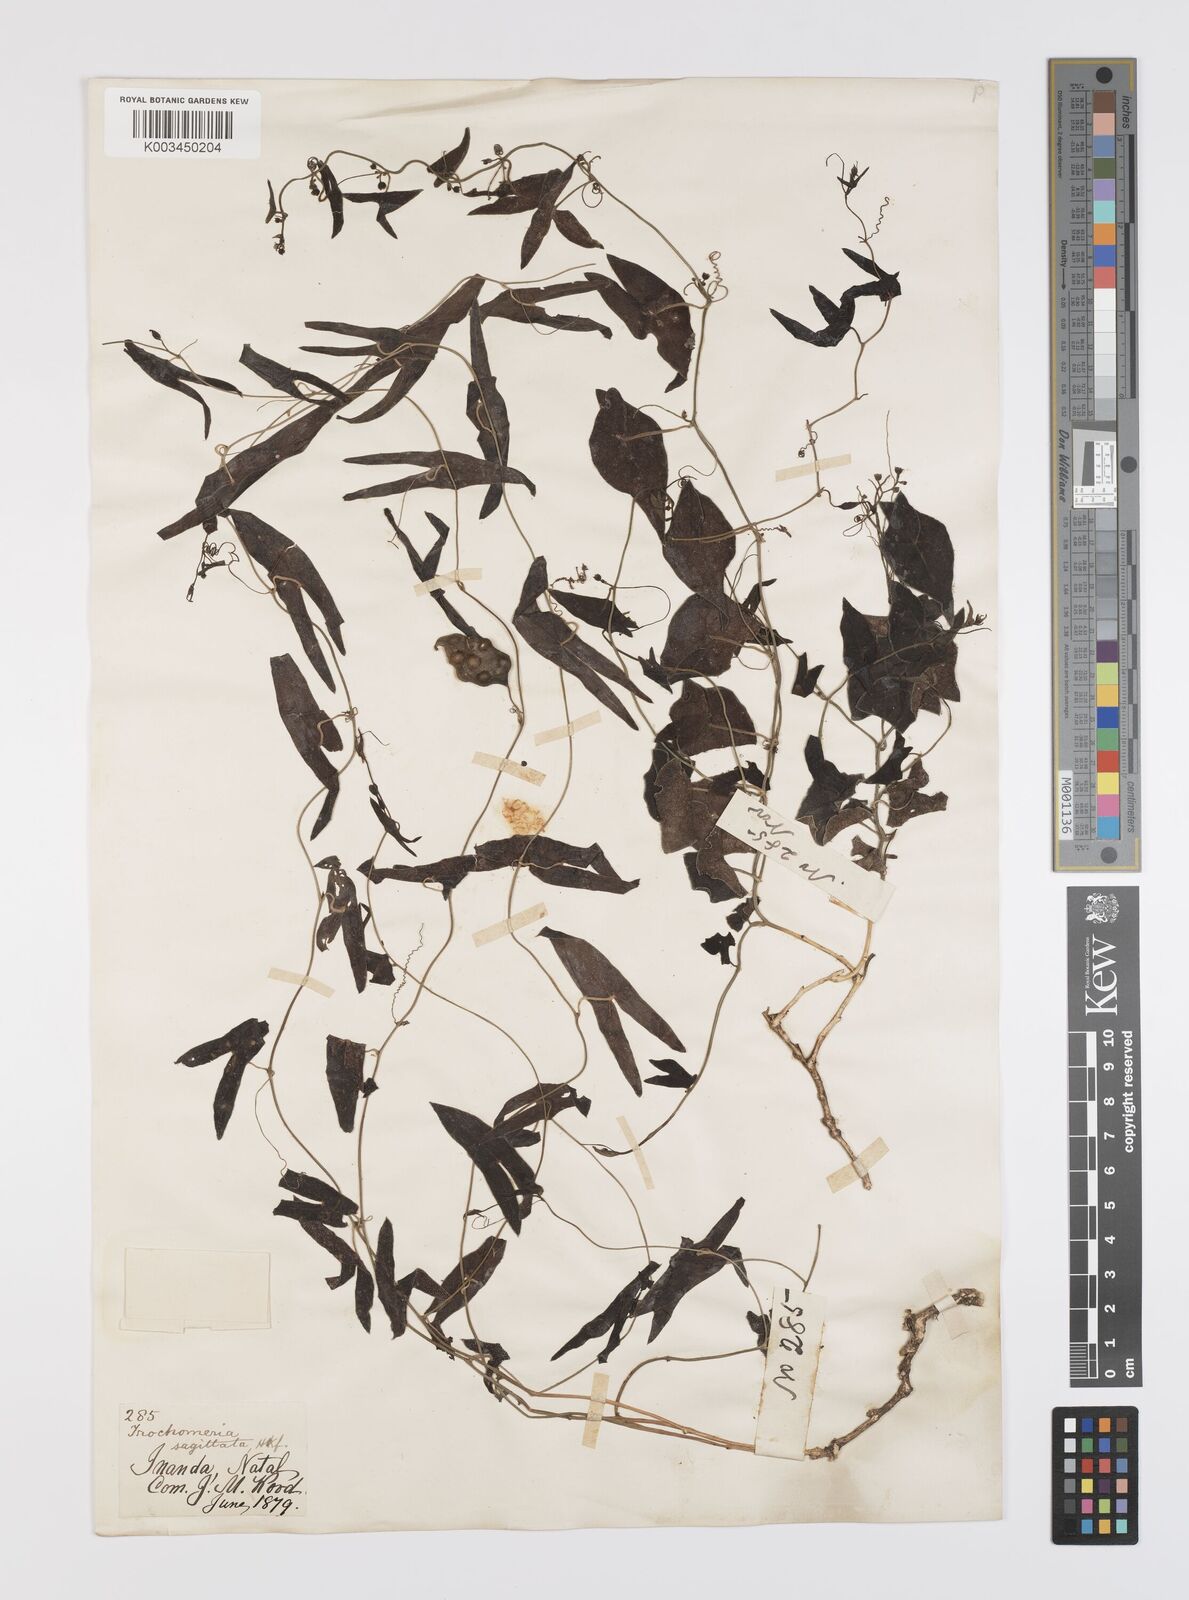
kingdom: Plantae
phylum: Tracheophyta
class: Magnoliopsida
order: Cucurbitales
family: Cucurbitaceae
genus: Trochomeria
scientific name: Trochomeria sagittata
